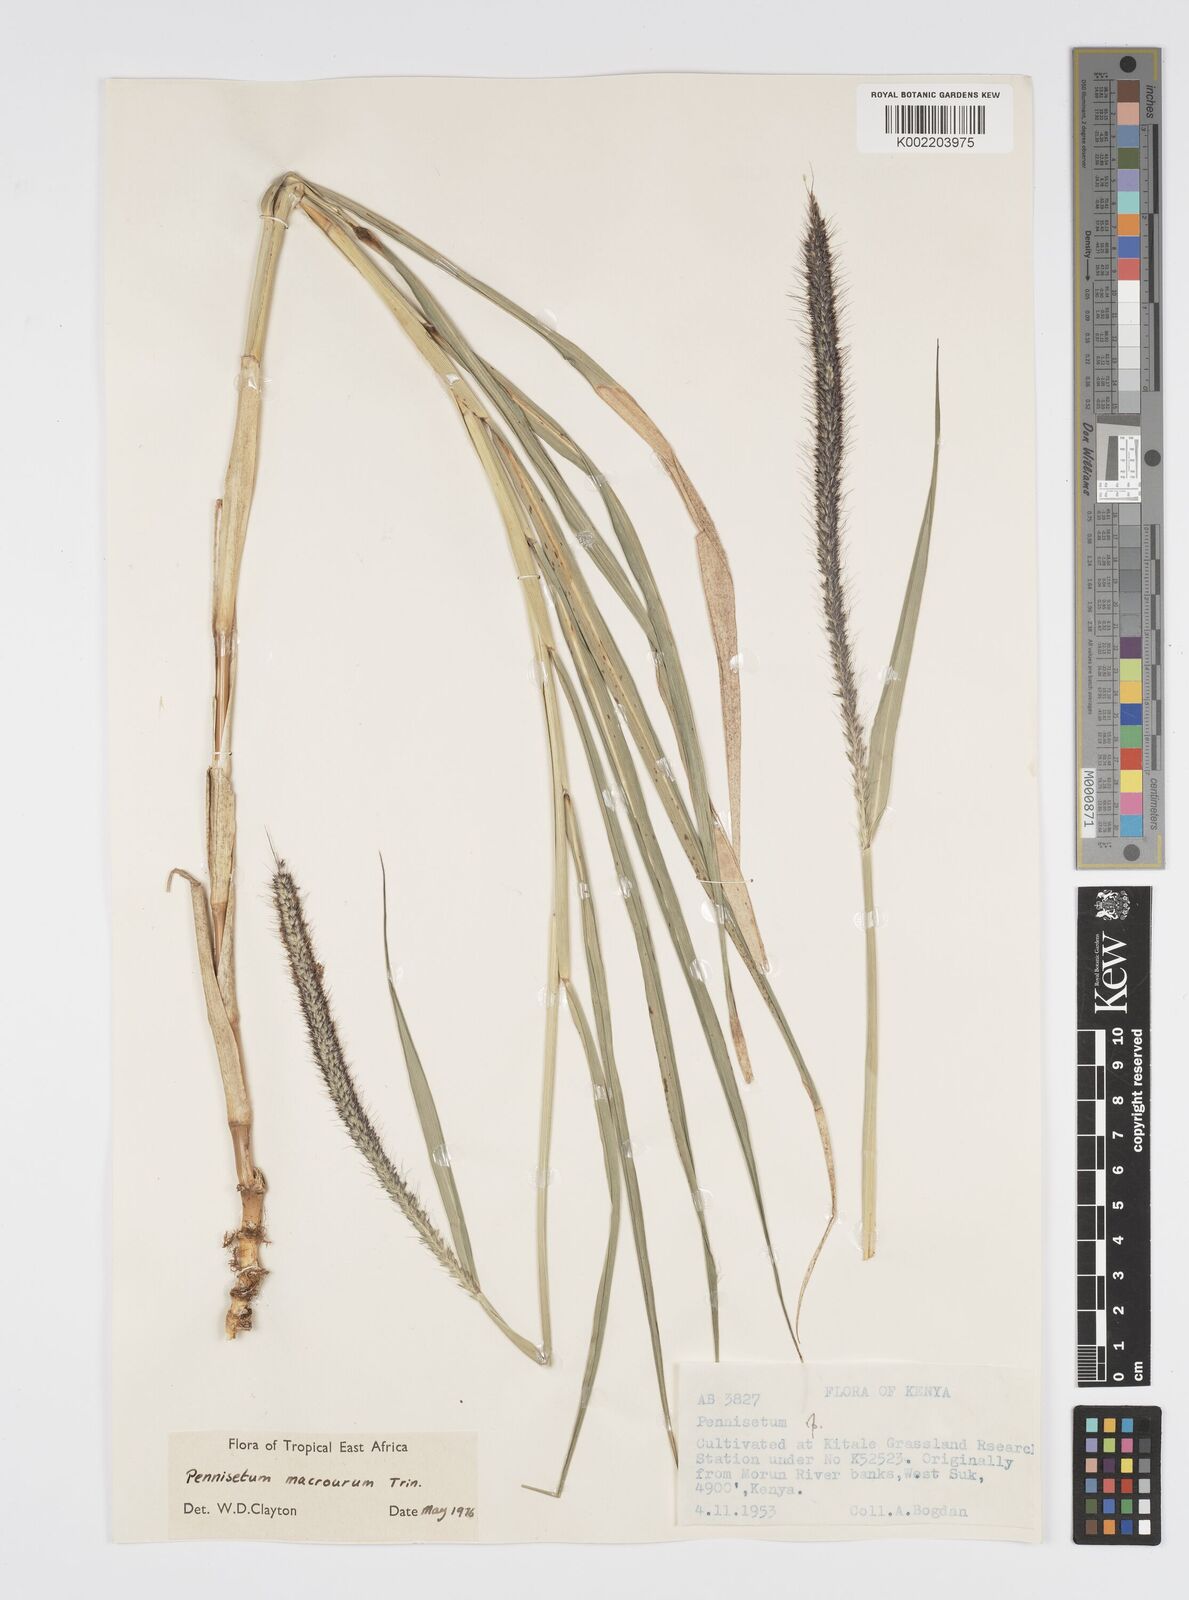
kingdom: Plantae
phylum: Tracheophyta
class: Liliopsida
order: Poales
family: Poaceae
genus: Cenchrus
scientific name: Cenchrus caudatus
